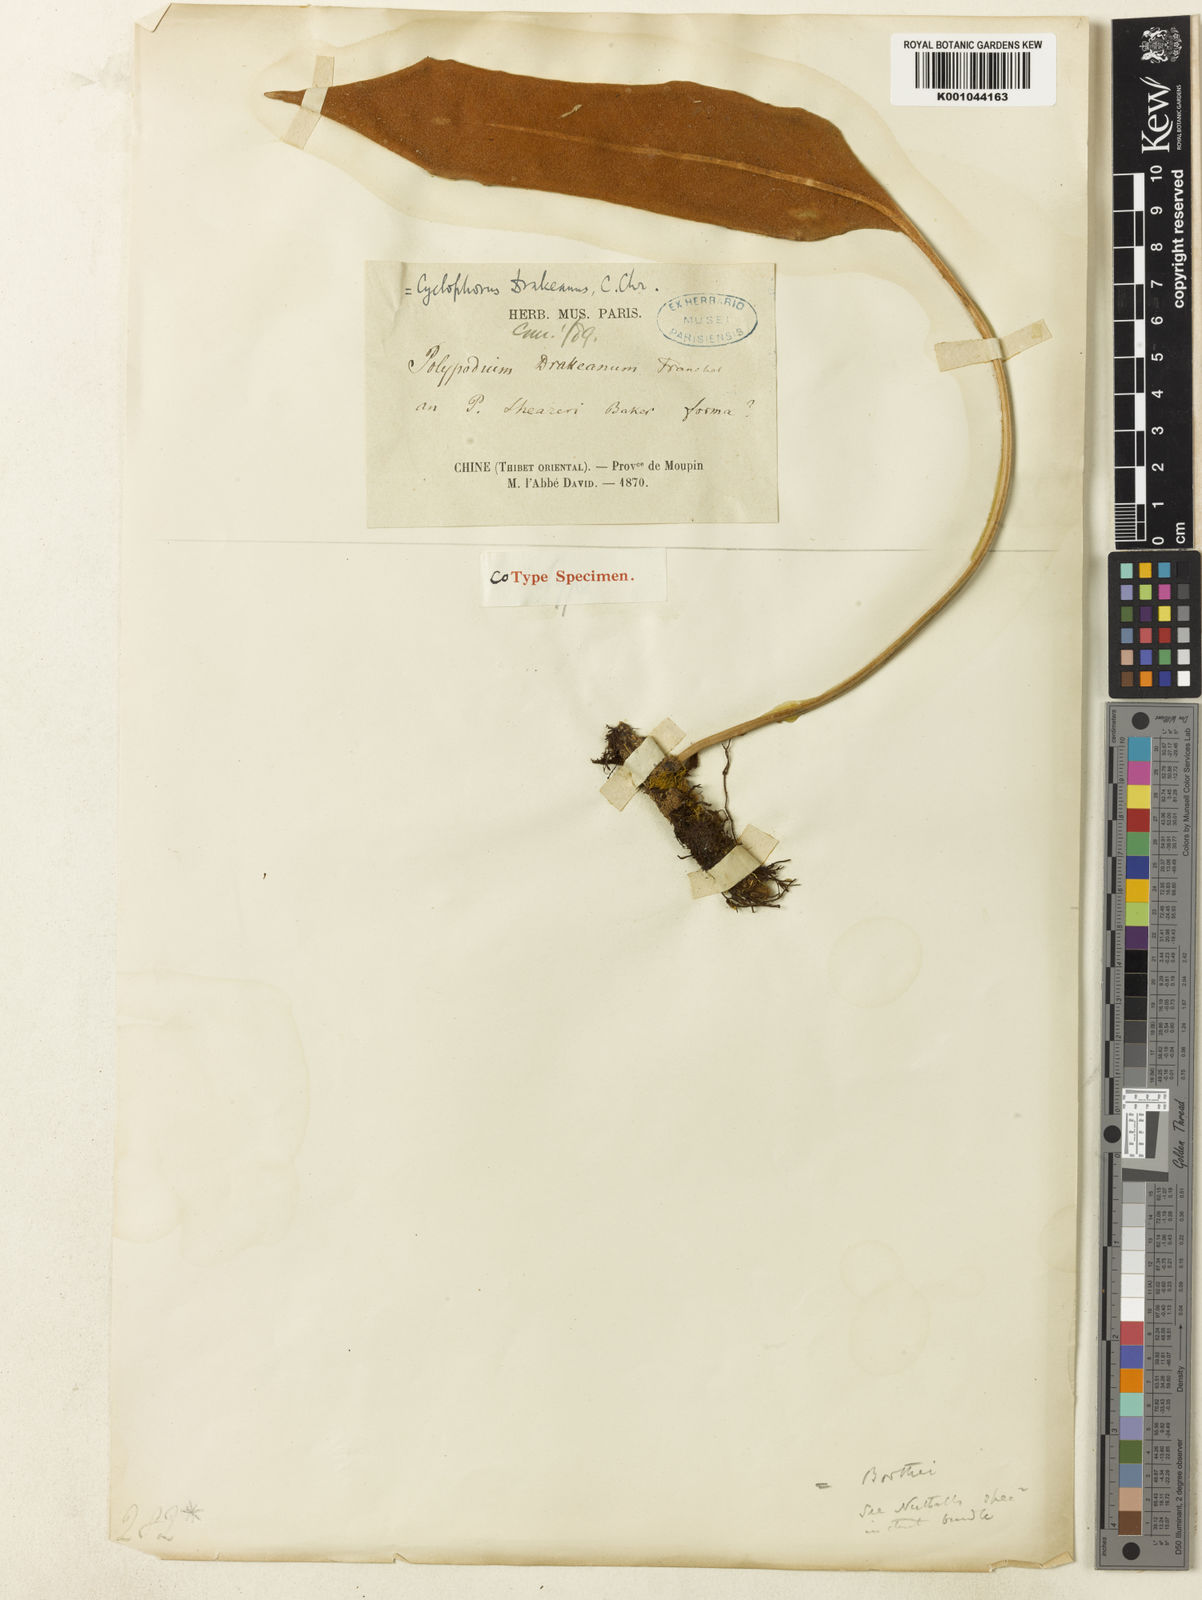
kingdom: Plantae
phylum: Tracheophyta
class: Polypodiopsida
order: Polypodiales
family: Polypodiaceae
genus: Pyrrosia
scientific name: Pyrrosia drakeana
